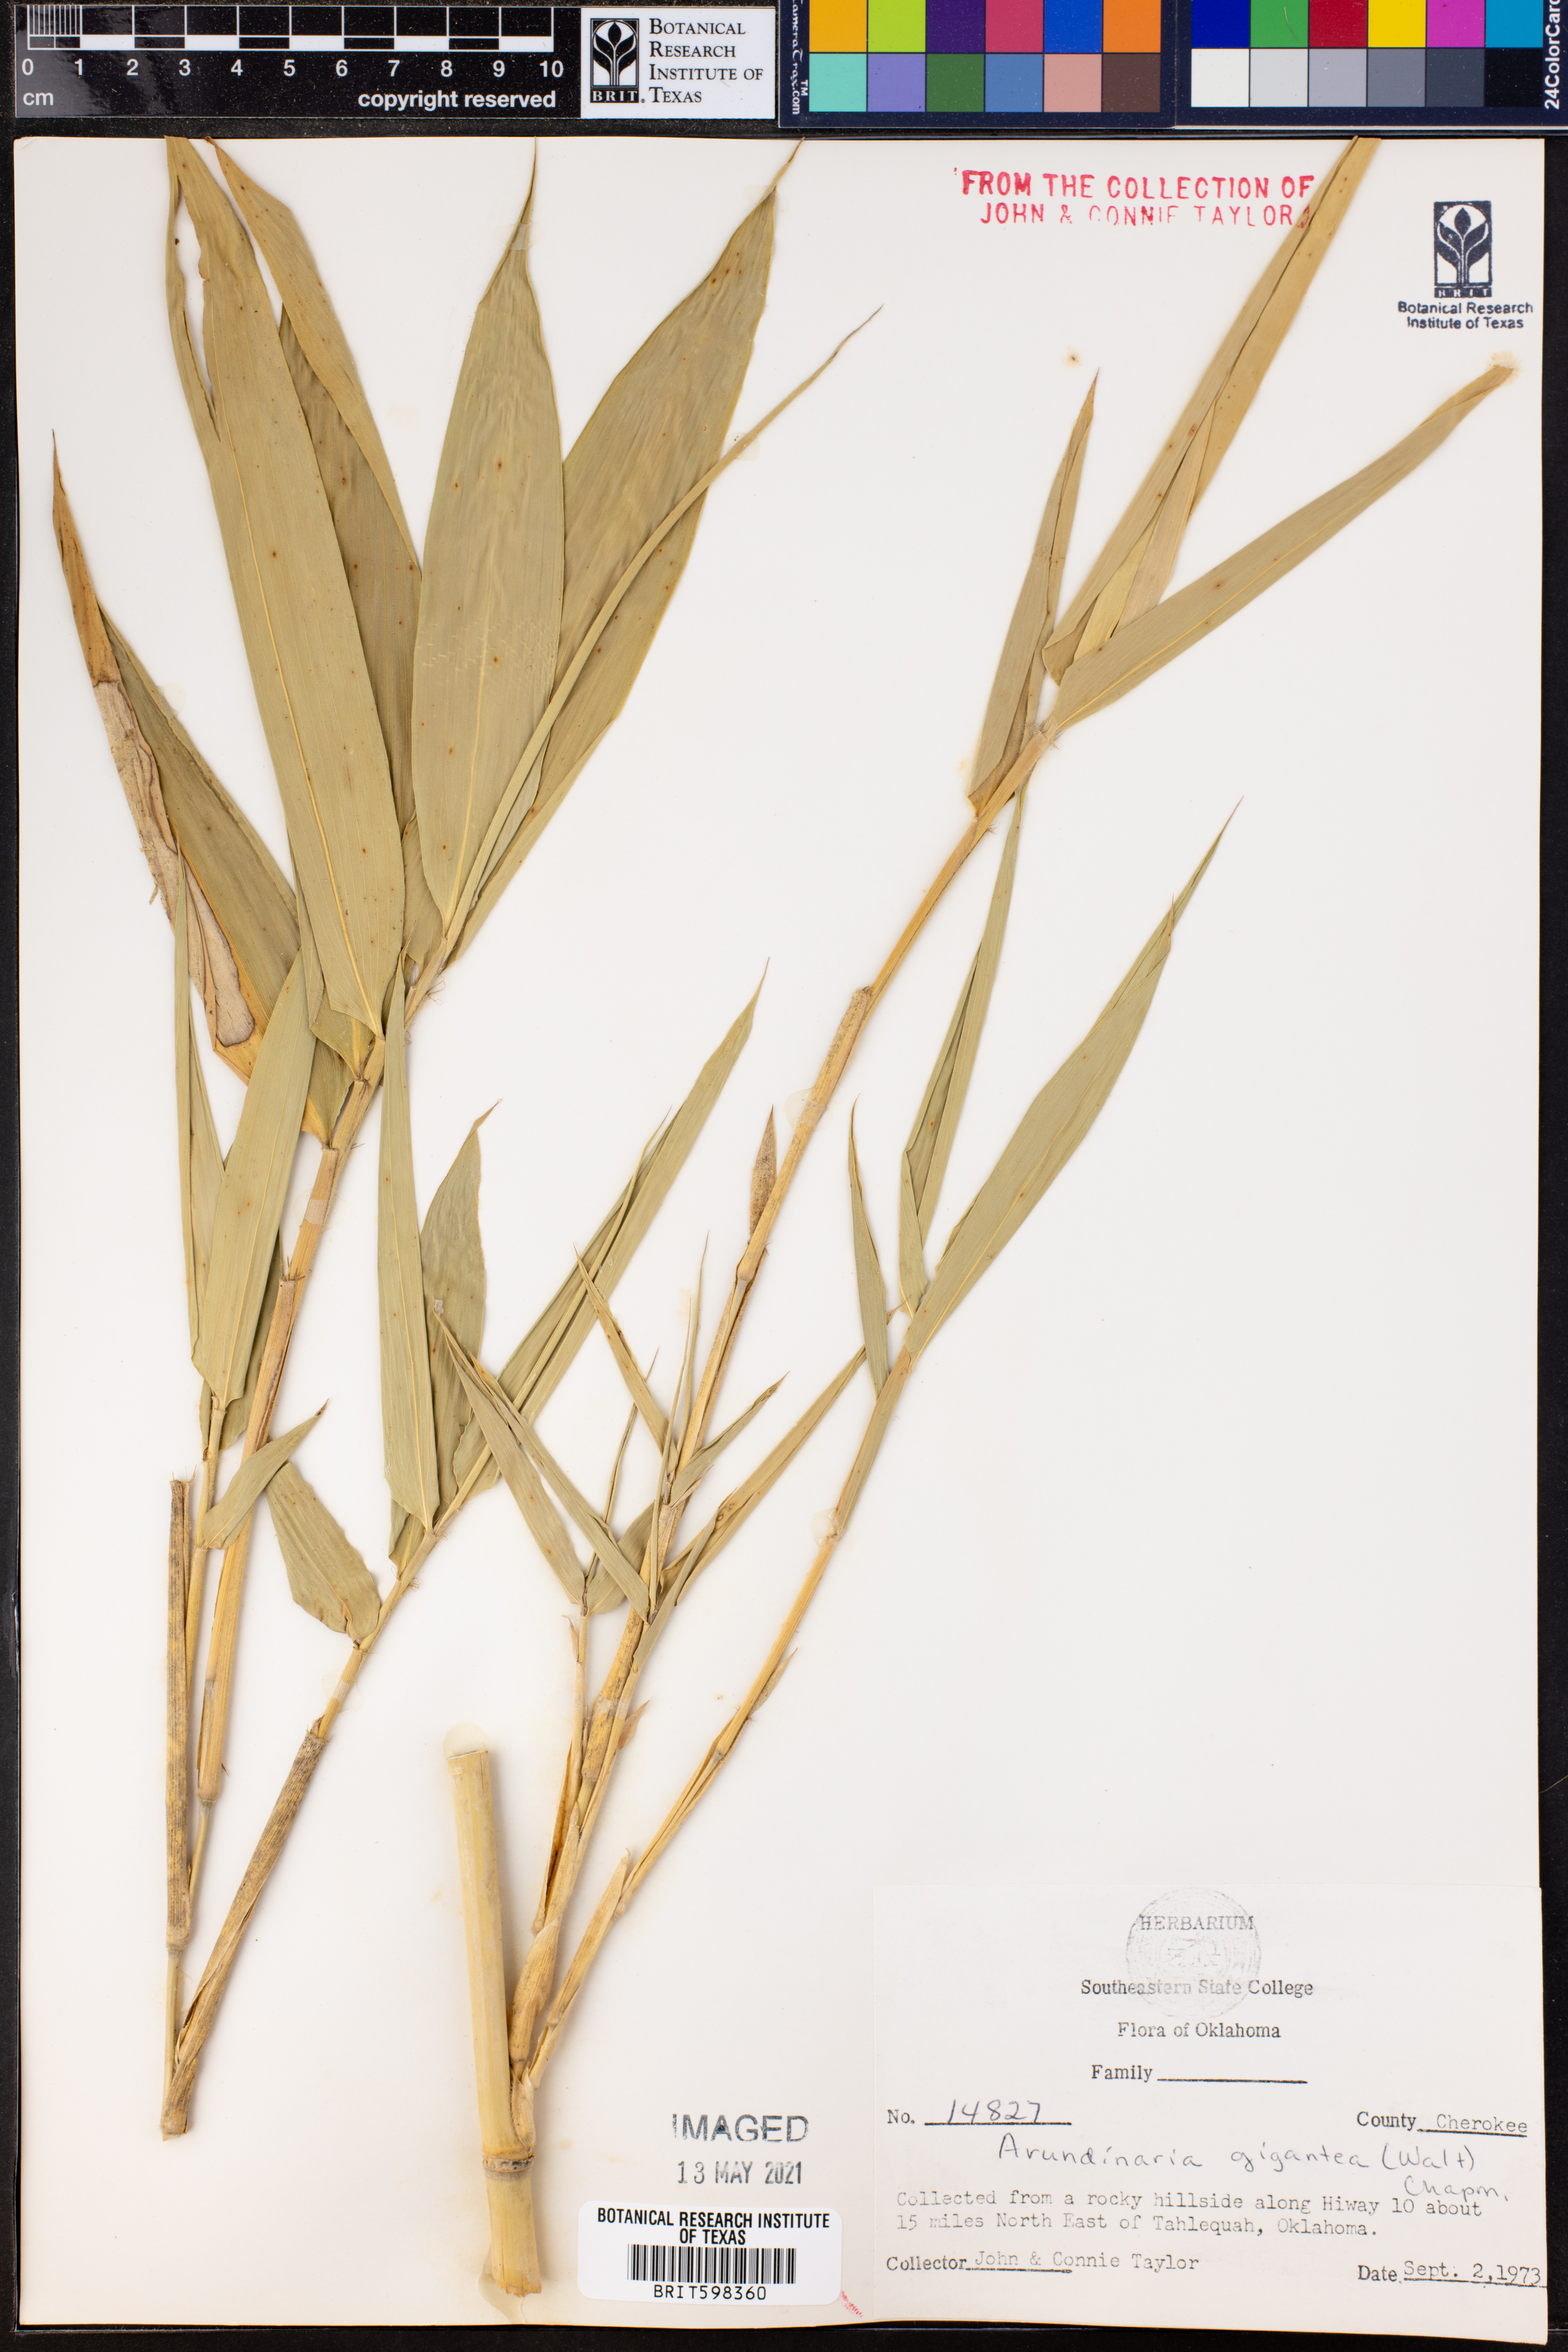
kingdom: Plantae
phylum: Tracheophyta
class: Liliopsida
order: Poales
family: Poaceae
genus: Arundinaria
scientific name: Arundinaria gigantea
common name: Giant cane
